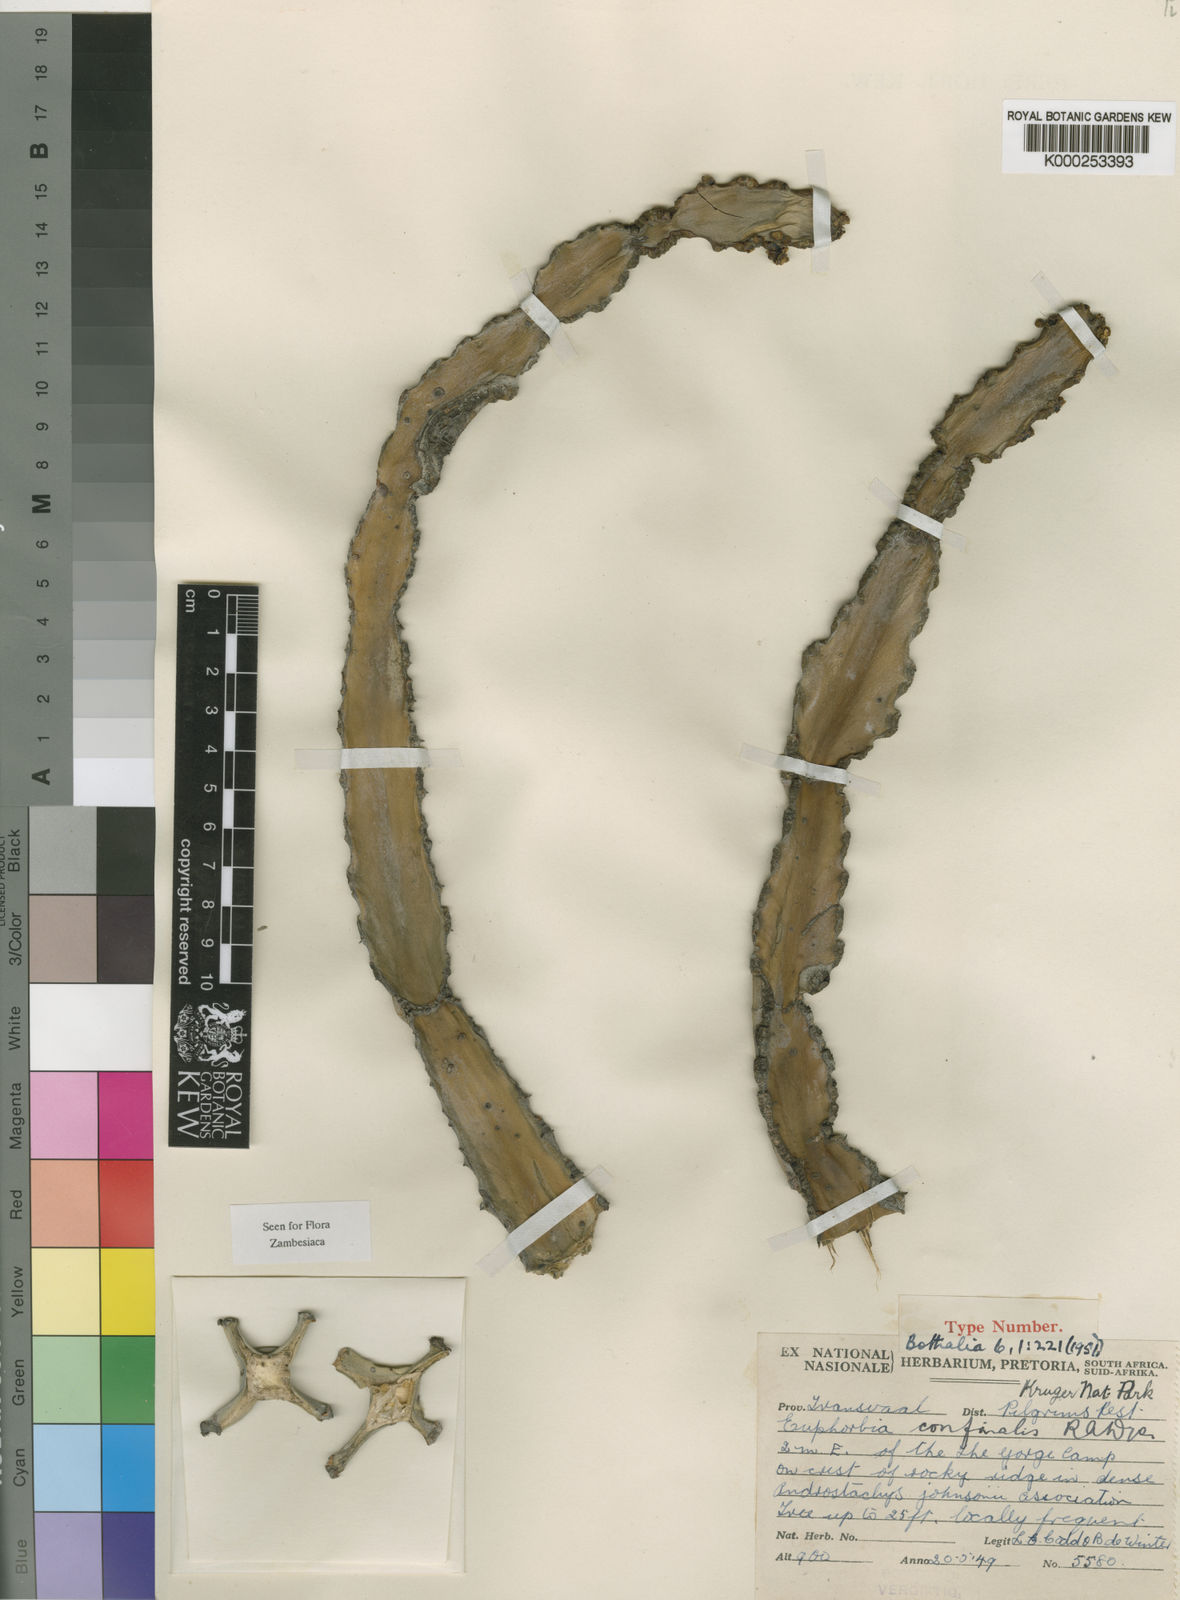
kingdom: Plantae
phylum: Tracheophyta
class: Magnoliopsida
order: Malpighiales
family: Euphorbiaceae
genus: Euphorbia
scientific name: Euphorbia confinalis
